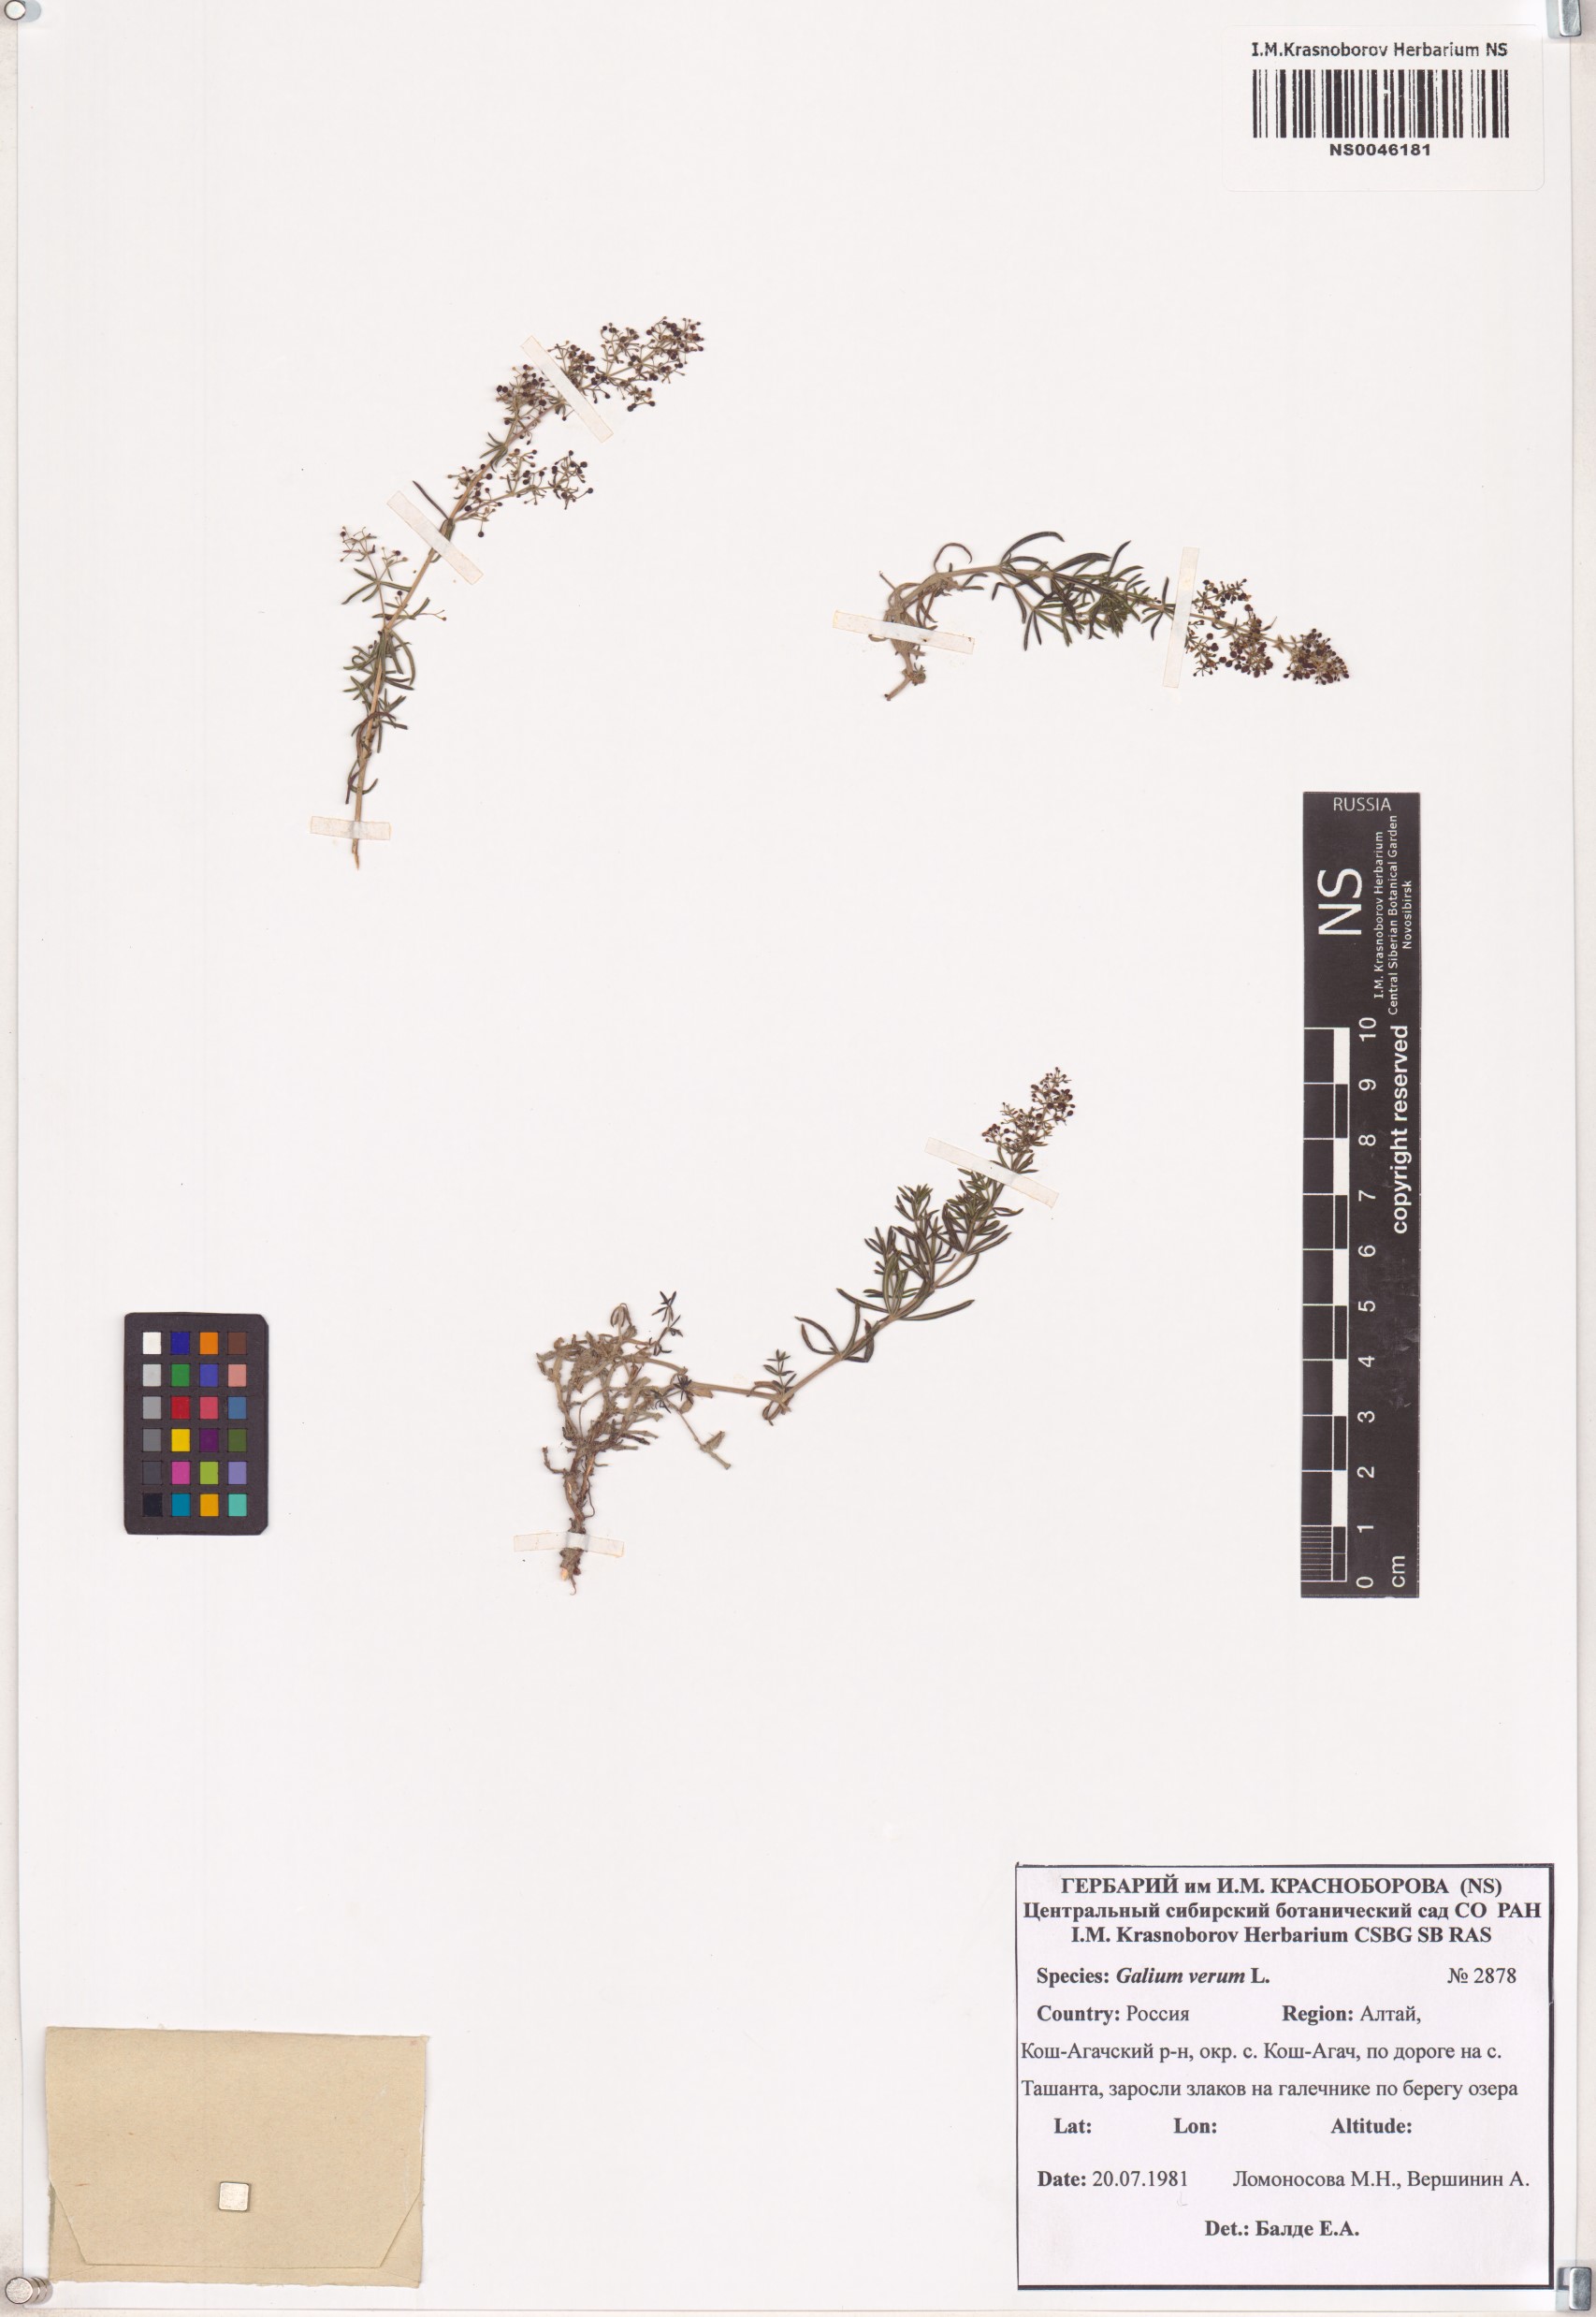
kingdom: Plantae
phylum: Tracheophyta
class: Magnoliopsida
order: Gentianales
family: Rubiaceae
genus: Galium
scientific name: Galium verum
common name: Lady's bedstraw
